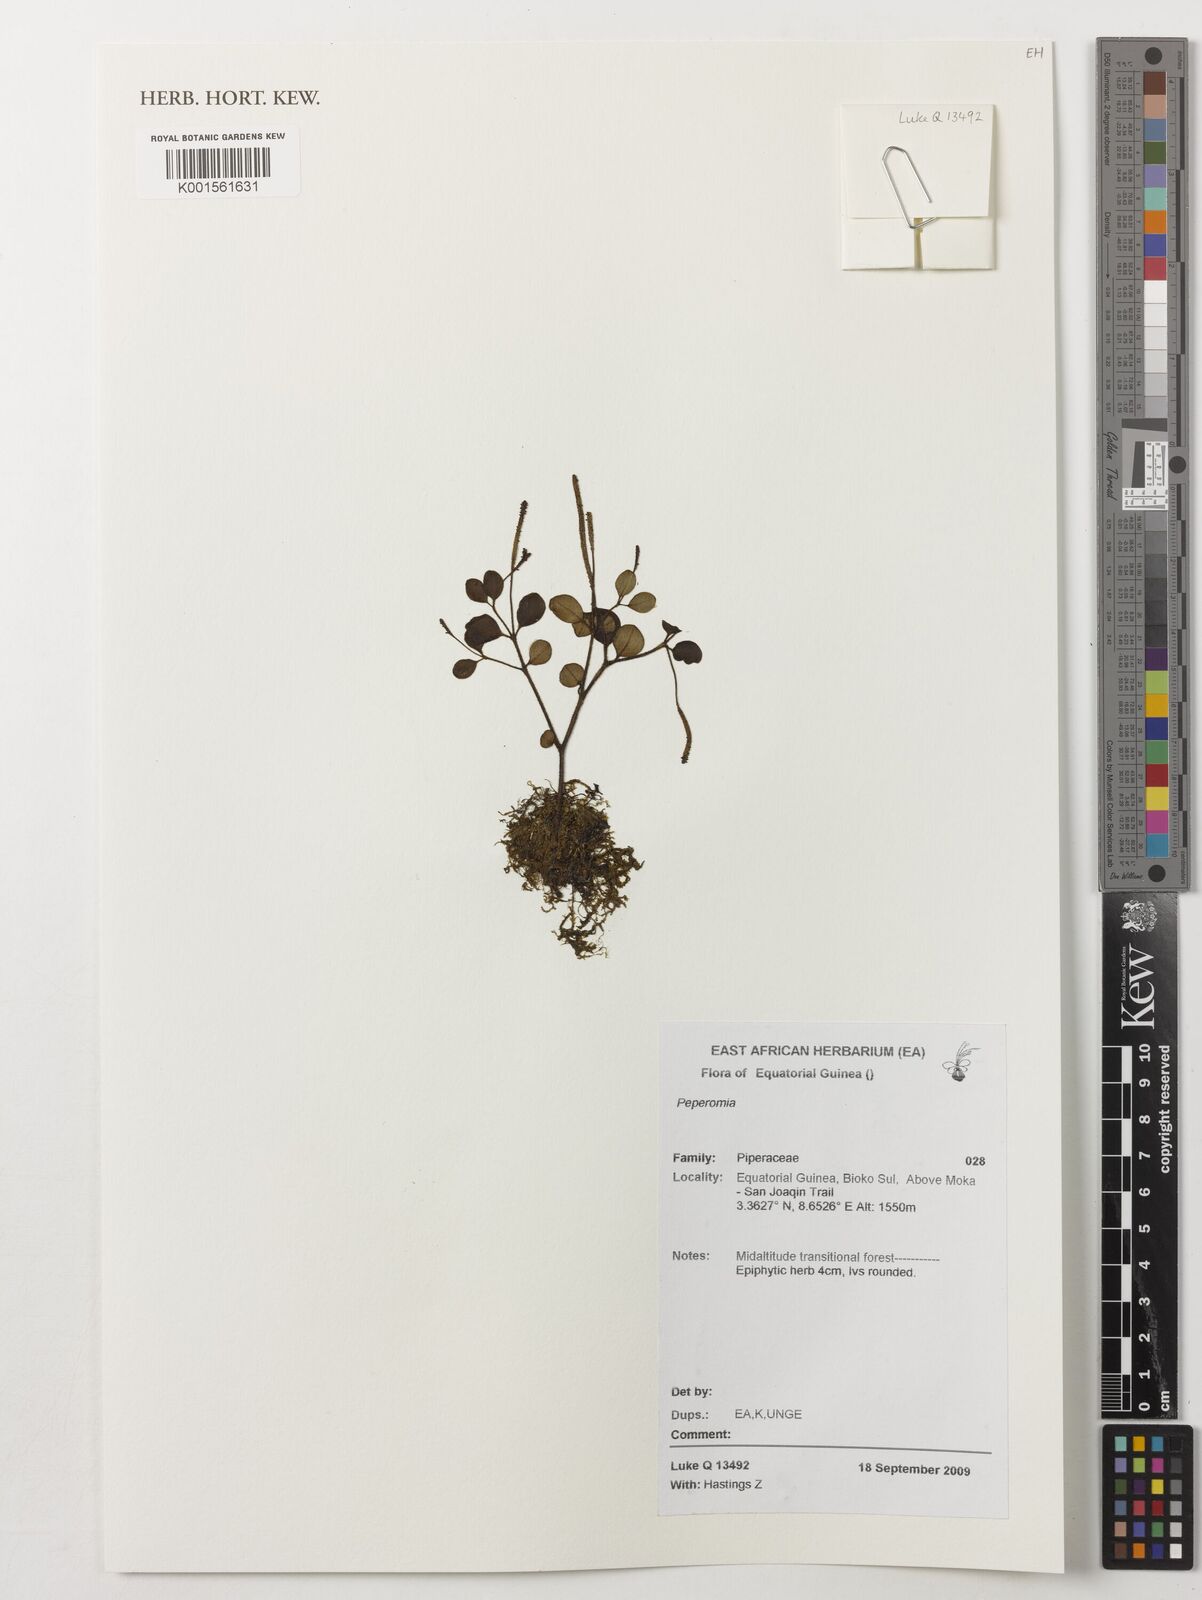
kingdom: Plantae
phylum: Tracheophyta
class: Magnoliopsida
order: Piperales
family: Piperaceae
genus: Peperomia
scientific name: Peperomia
